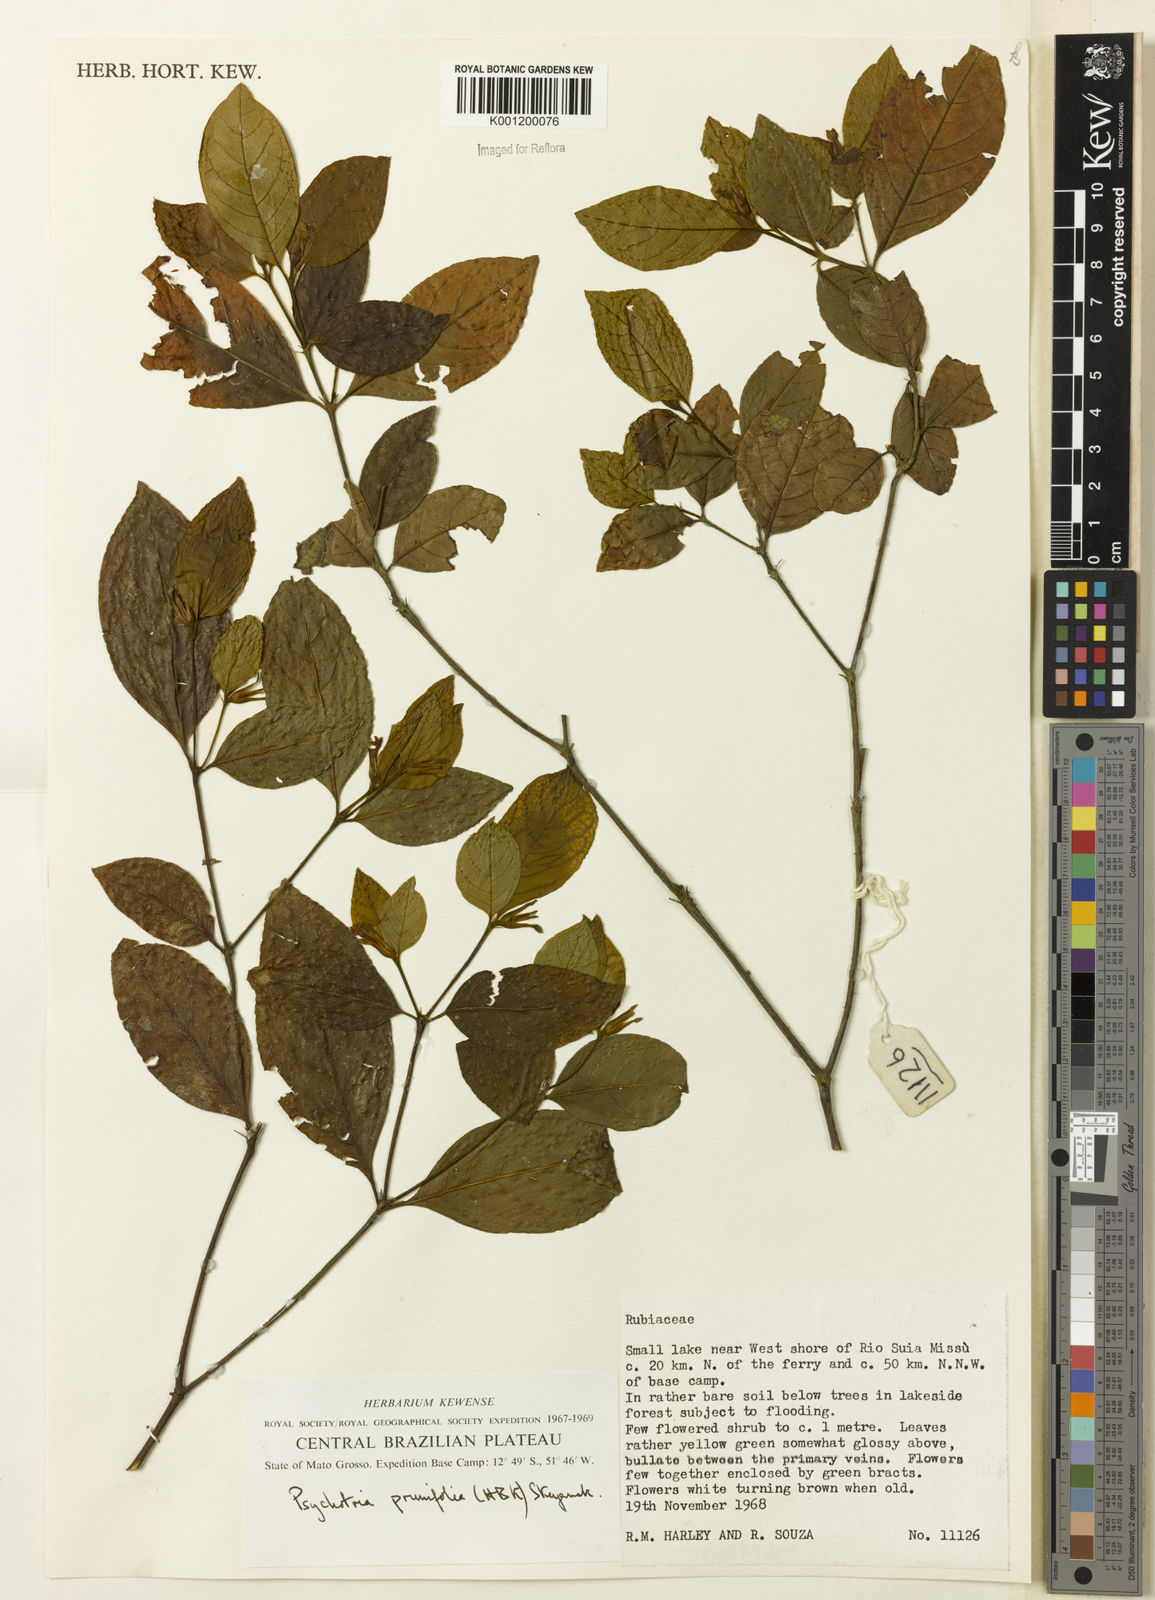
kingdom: Plantae
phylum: Tracheophyta
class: Magnoliopsida
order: Gentianales
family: Rubiaceae
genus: Palicourea
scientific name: Palicourea prunifolia
